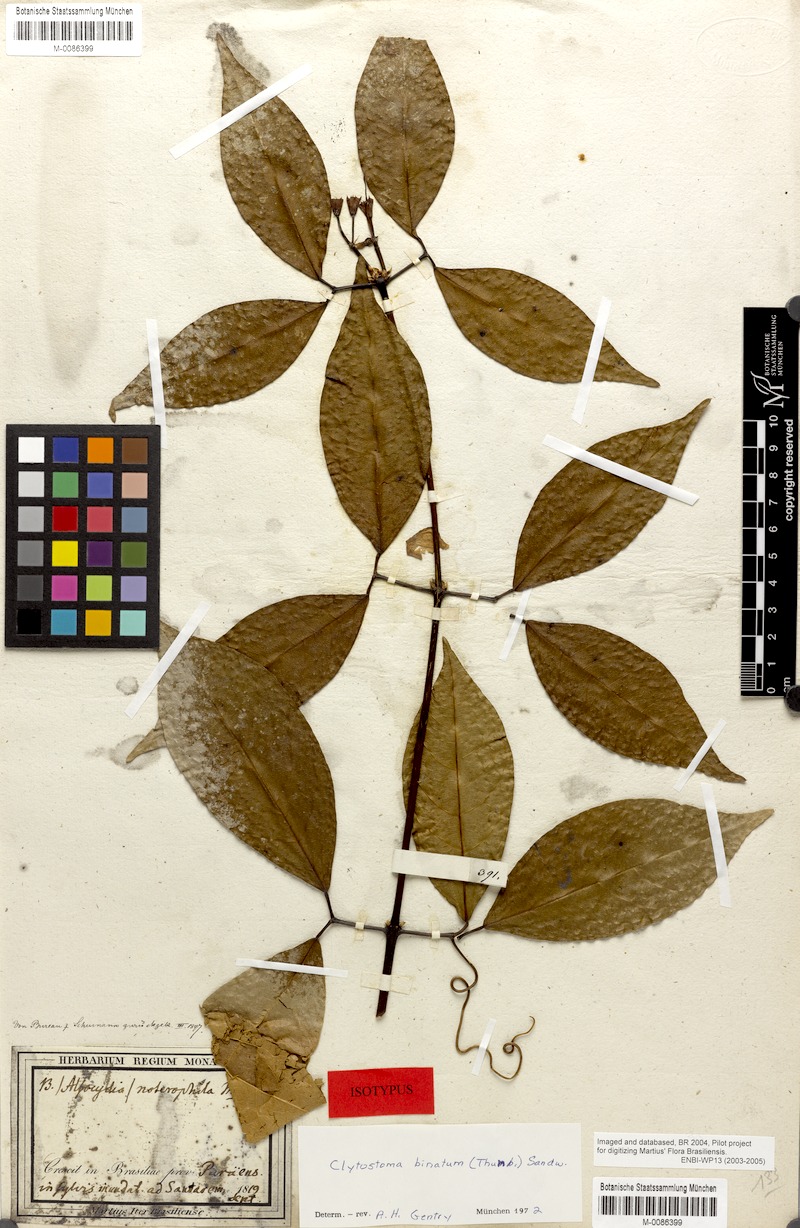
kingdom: Plantae
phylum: Tracheophyta
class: Magnoliopsida
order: Lamiales
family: Bignoniaceae
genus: Bignonia
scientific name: Bignonia binata
